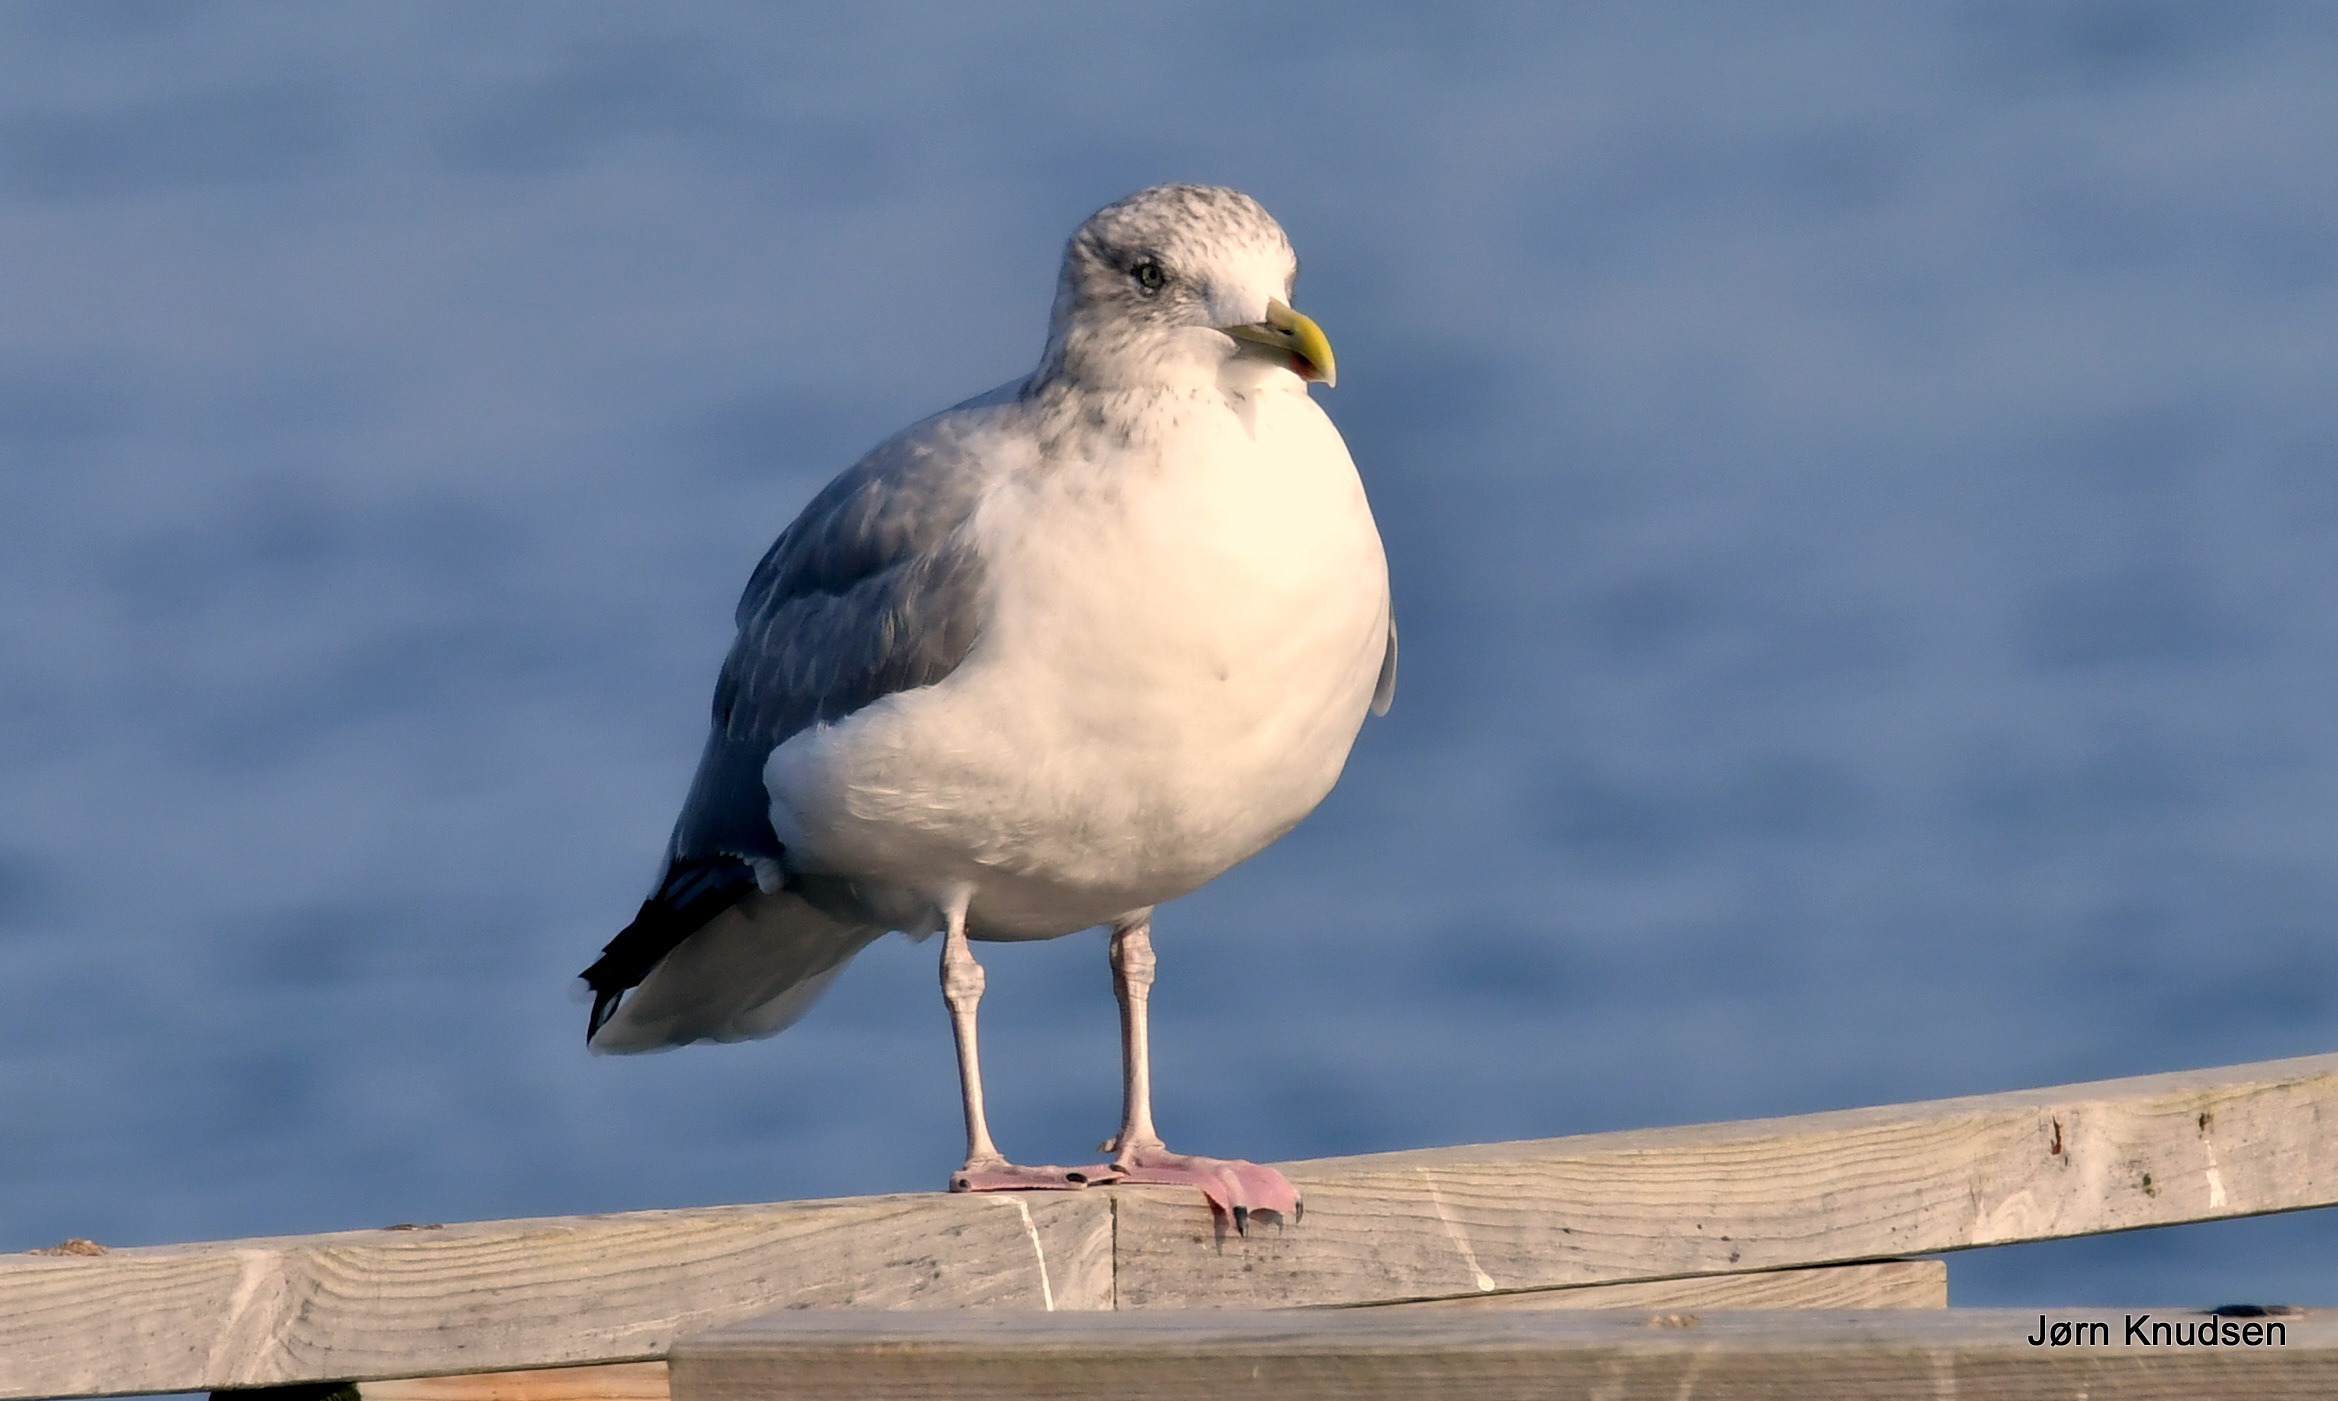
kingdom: Animalia
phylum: Chordata
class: Aves
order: Charadriiformes
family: Laridae
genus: Larus
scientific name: Larus argentatus
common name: Sølvmåge
